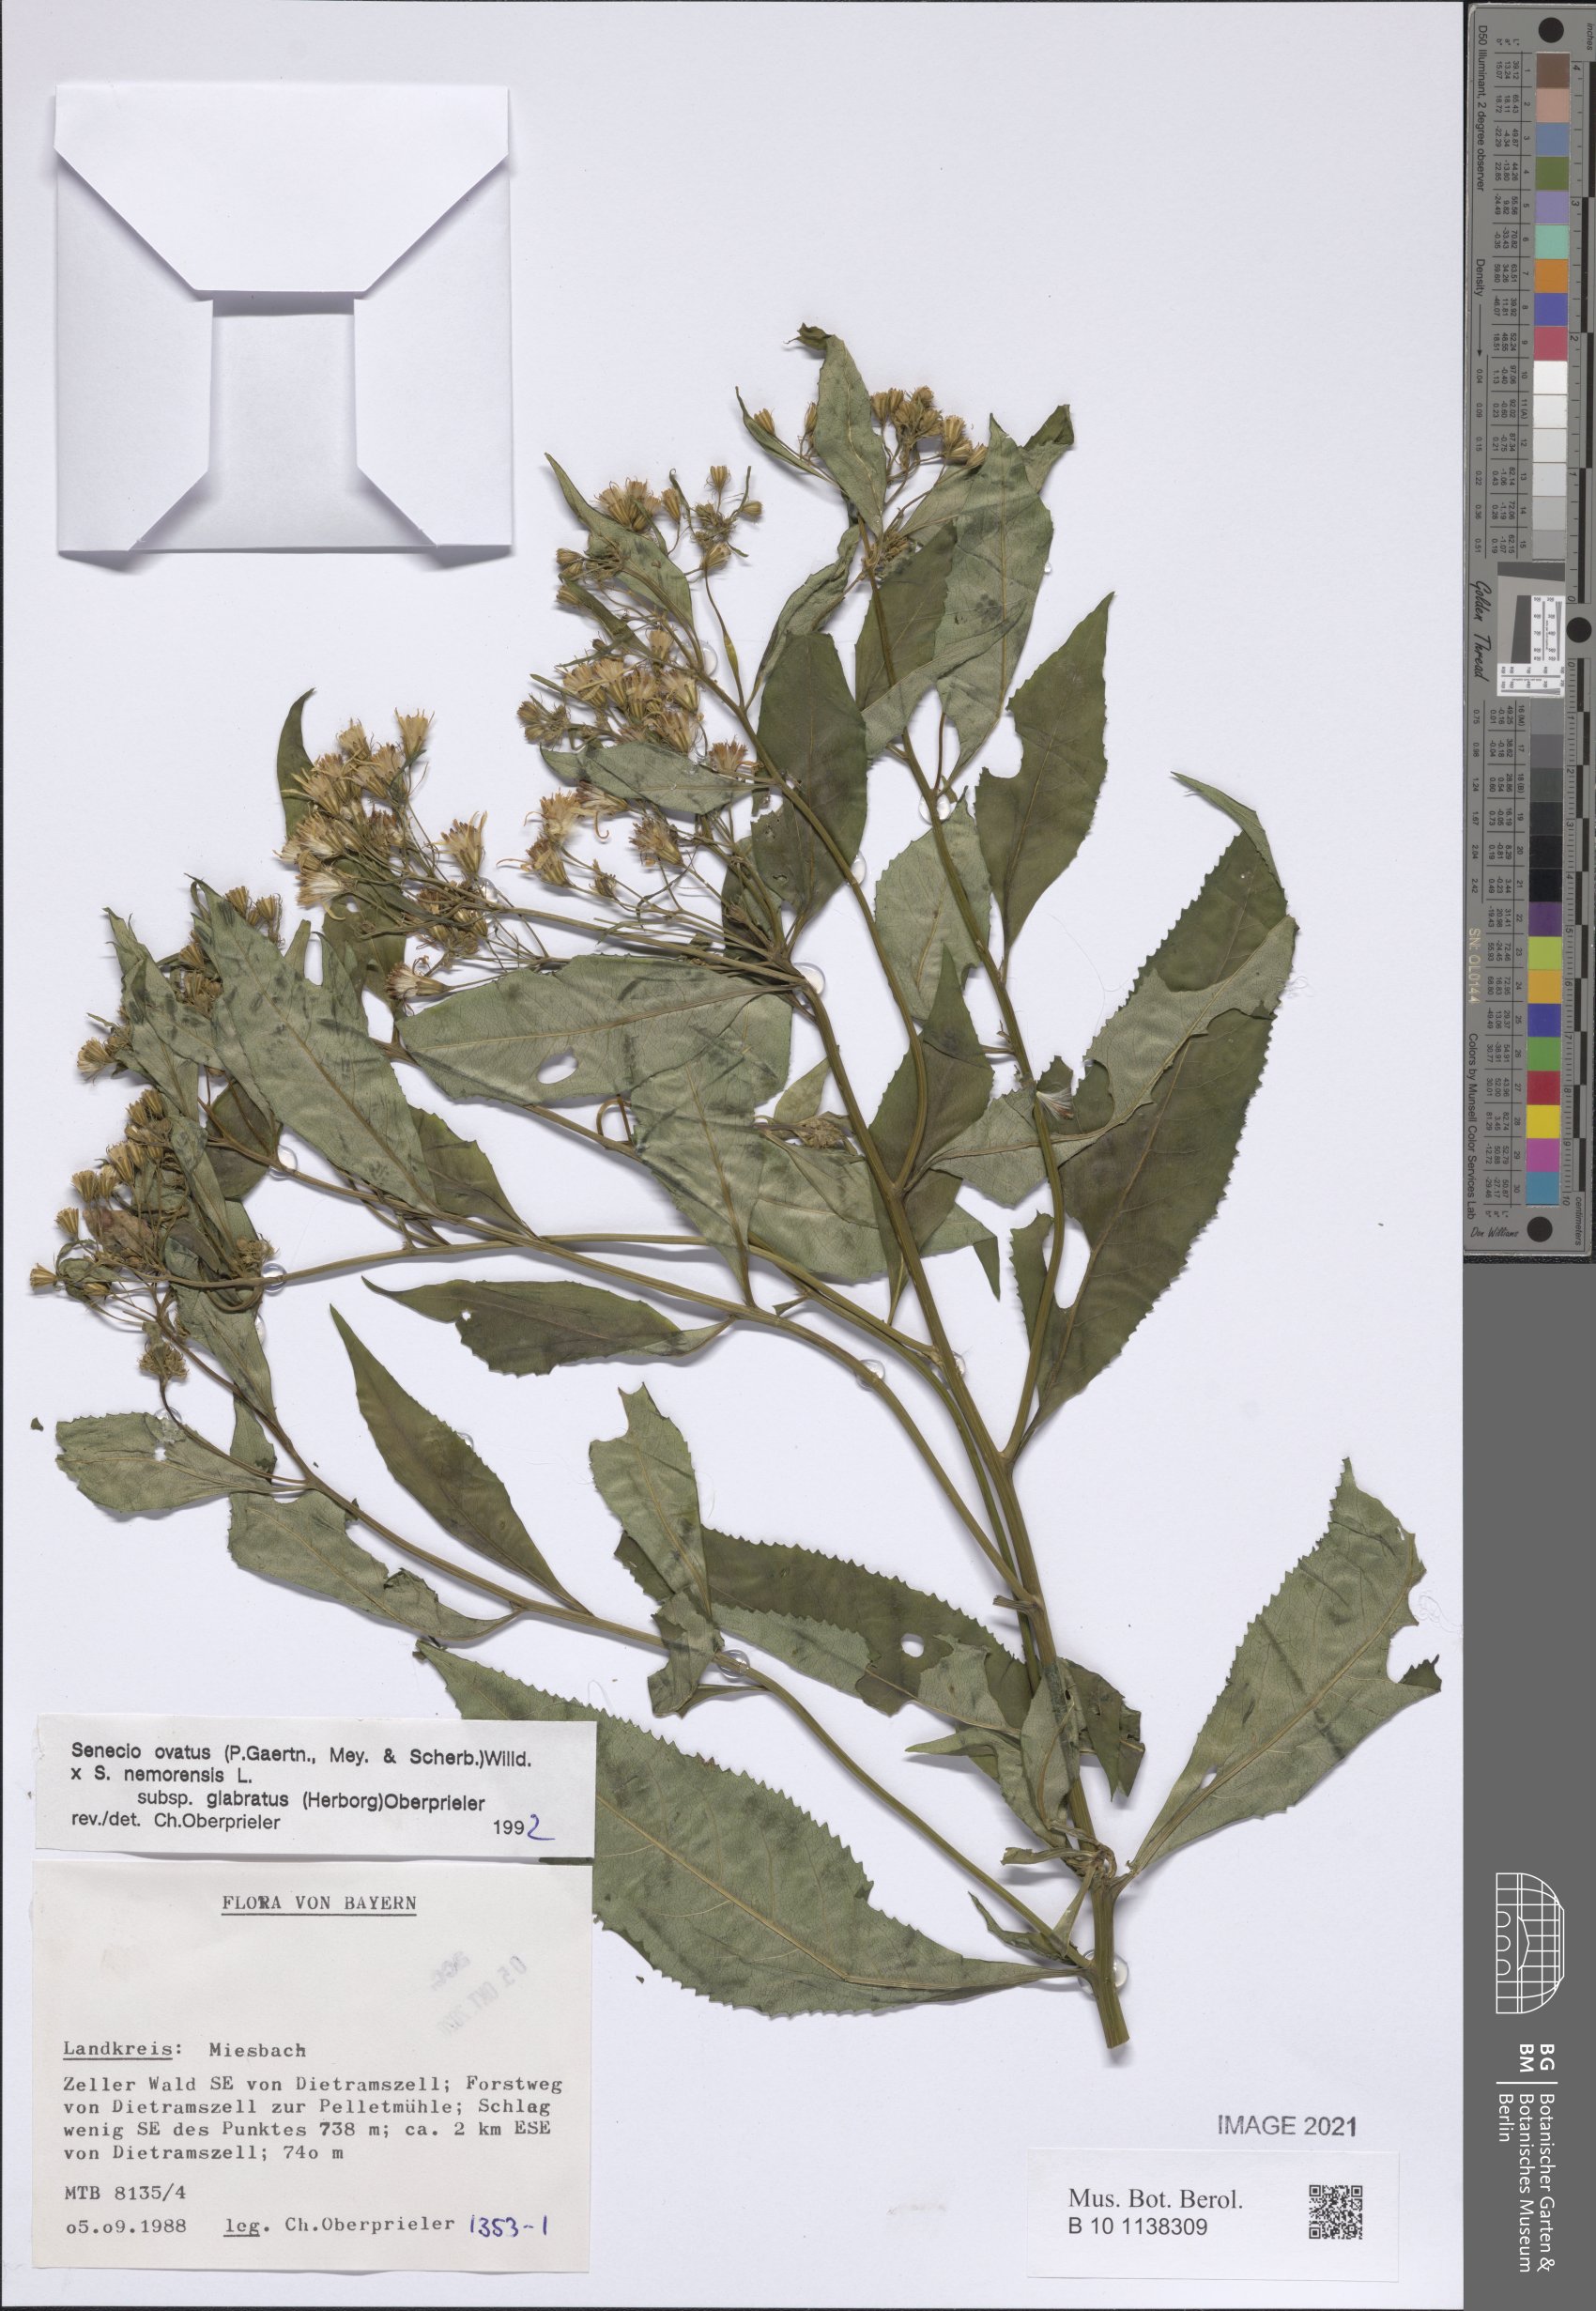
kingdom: Plantae
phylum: Tracheophyta
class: Magnoliopsida
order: Asterales
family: Asteraceae
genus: Senecio
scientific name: Senecio ovatus
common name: Wood ragwort
